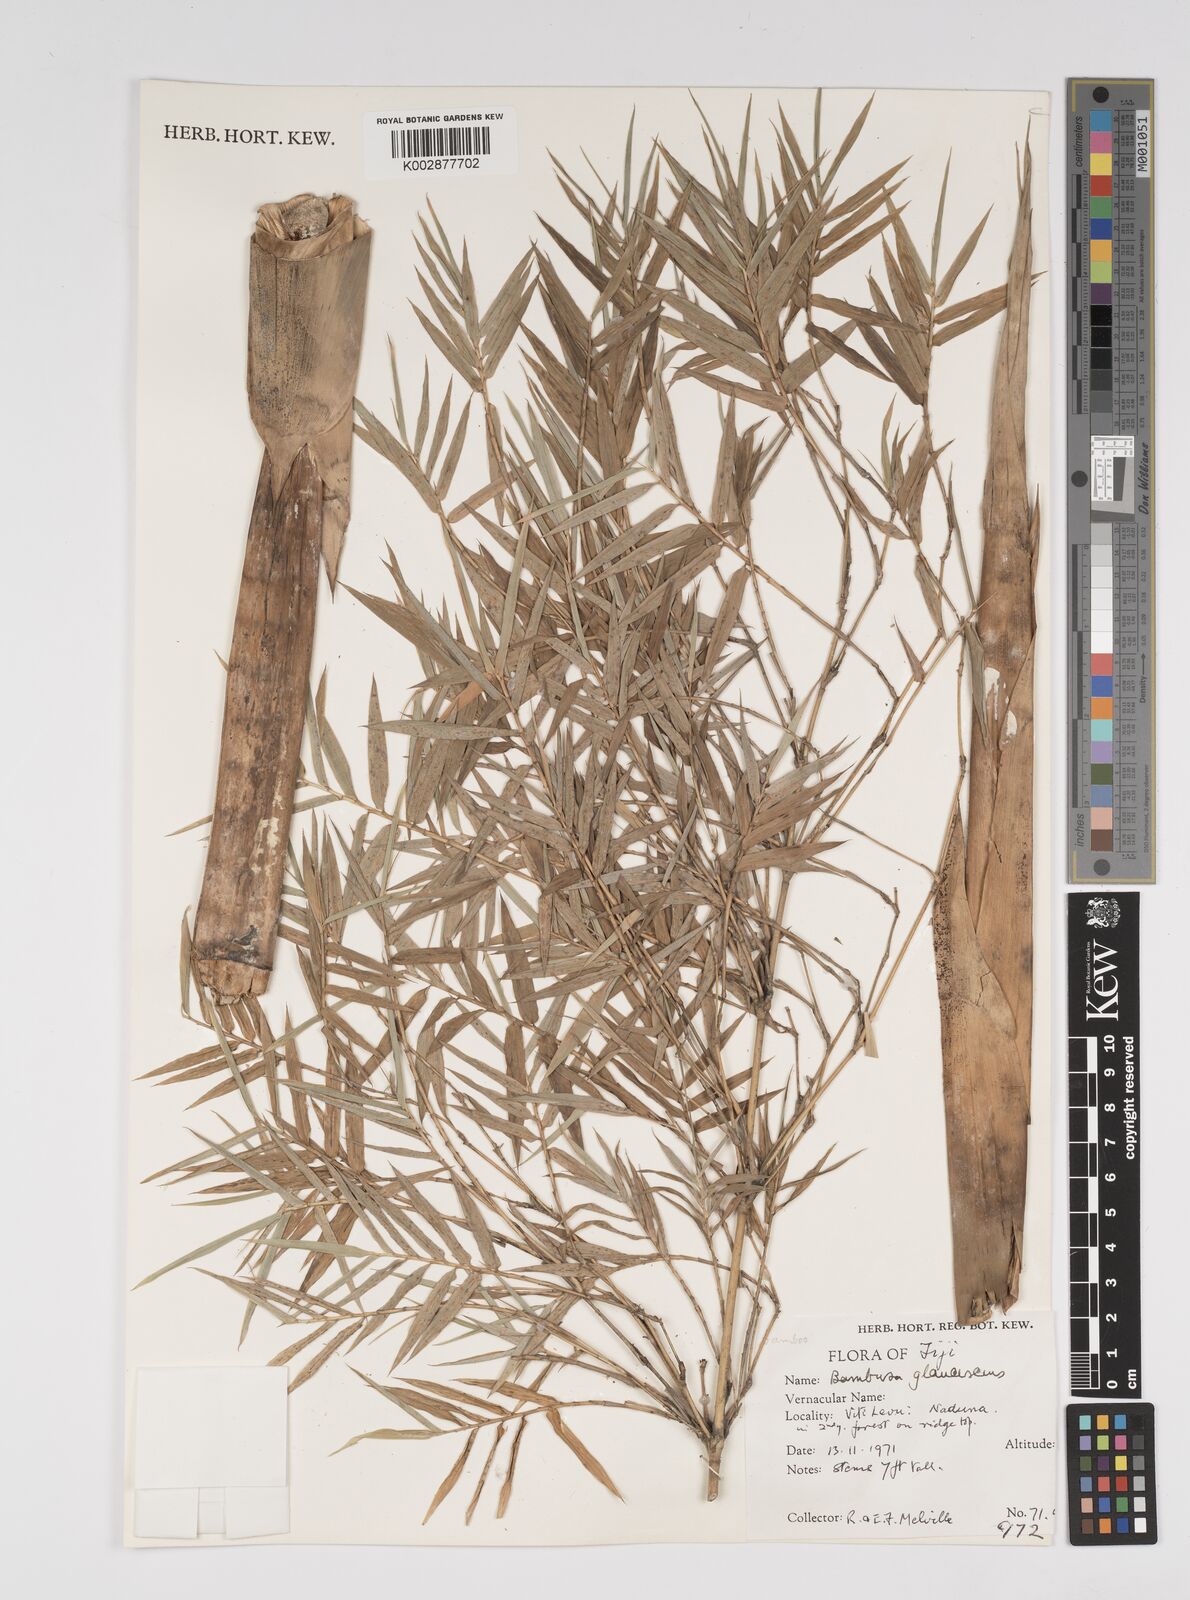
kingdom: Plantae
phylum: Tracheophyta
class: Liliopsida
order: Poales
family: Poaceae
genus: Bambusa
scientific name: Bambusa multiplex
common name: Hedge bamboo
